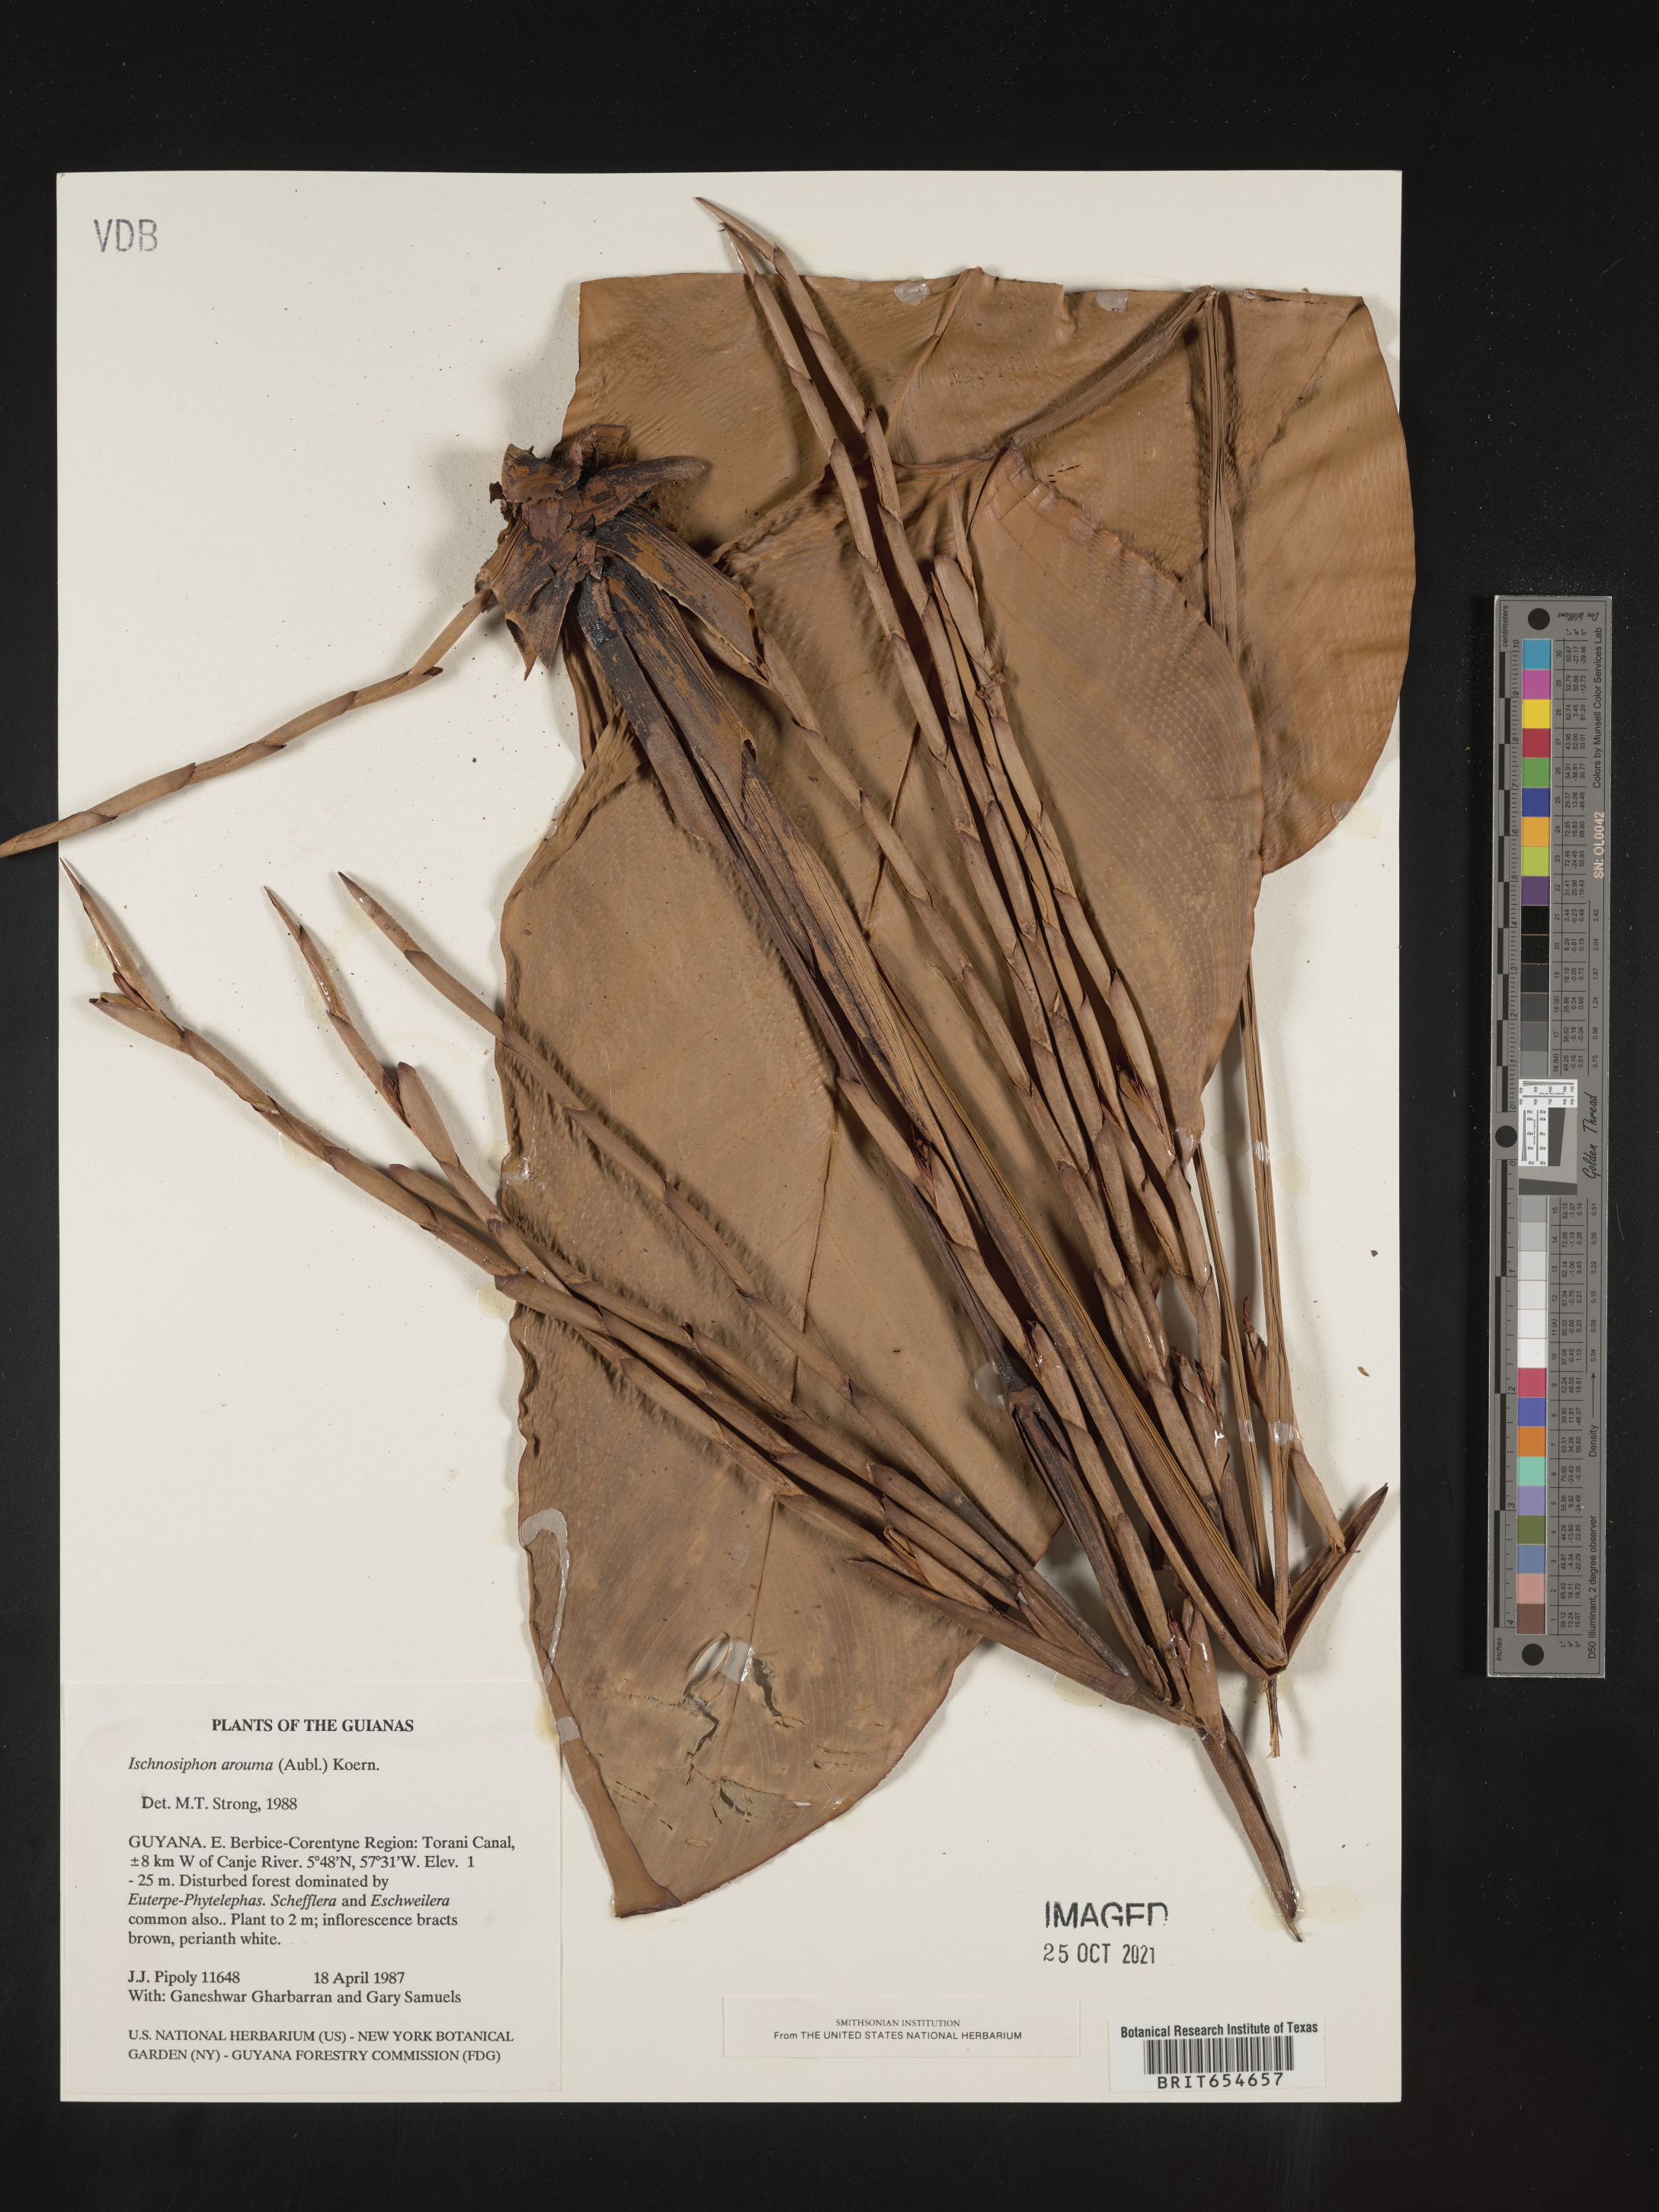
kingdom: Plantae
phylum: Tracheophyta
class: Liliopsida
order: Zingiberales
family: Marantaceae
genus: Ischnosiphon
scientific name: Ischnosiphon
